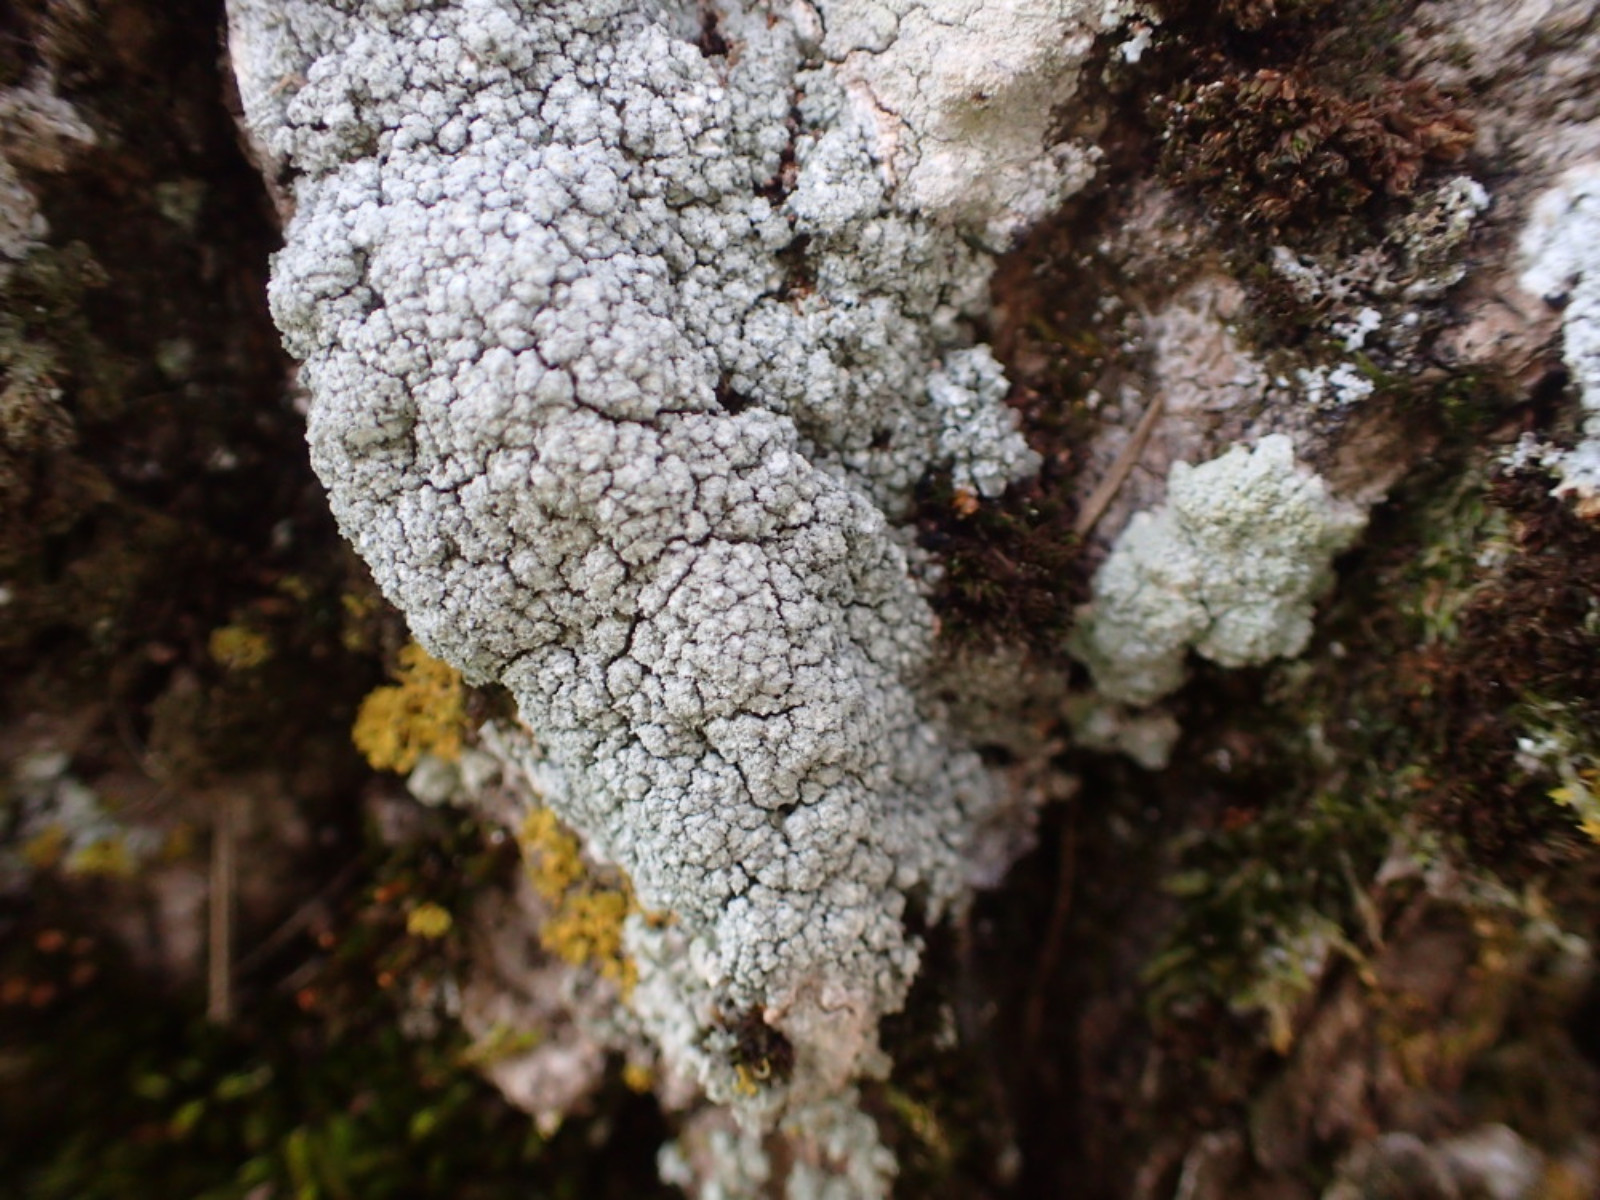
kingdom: Fungi
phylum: Ascomycota
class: Lecanoromycetes
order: Pertusariales
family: Pertusariaceae
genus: Lepra
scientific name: Lepra amara
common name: bitter prikvortelav
